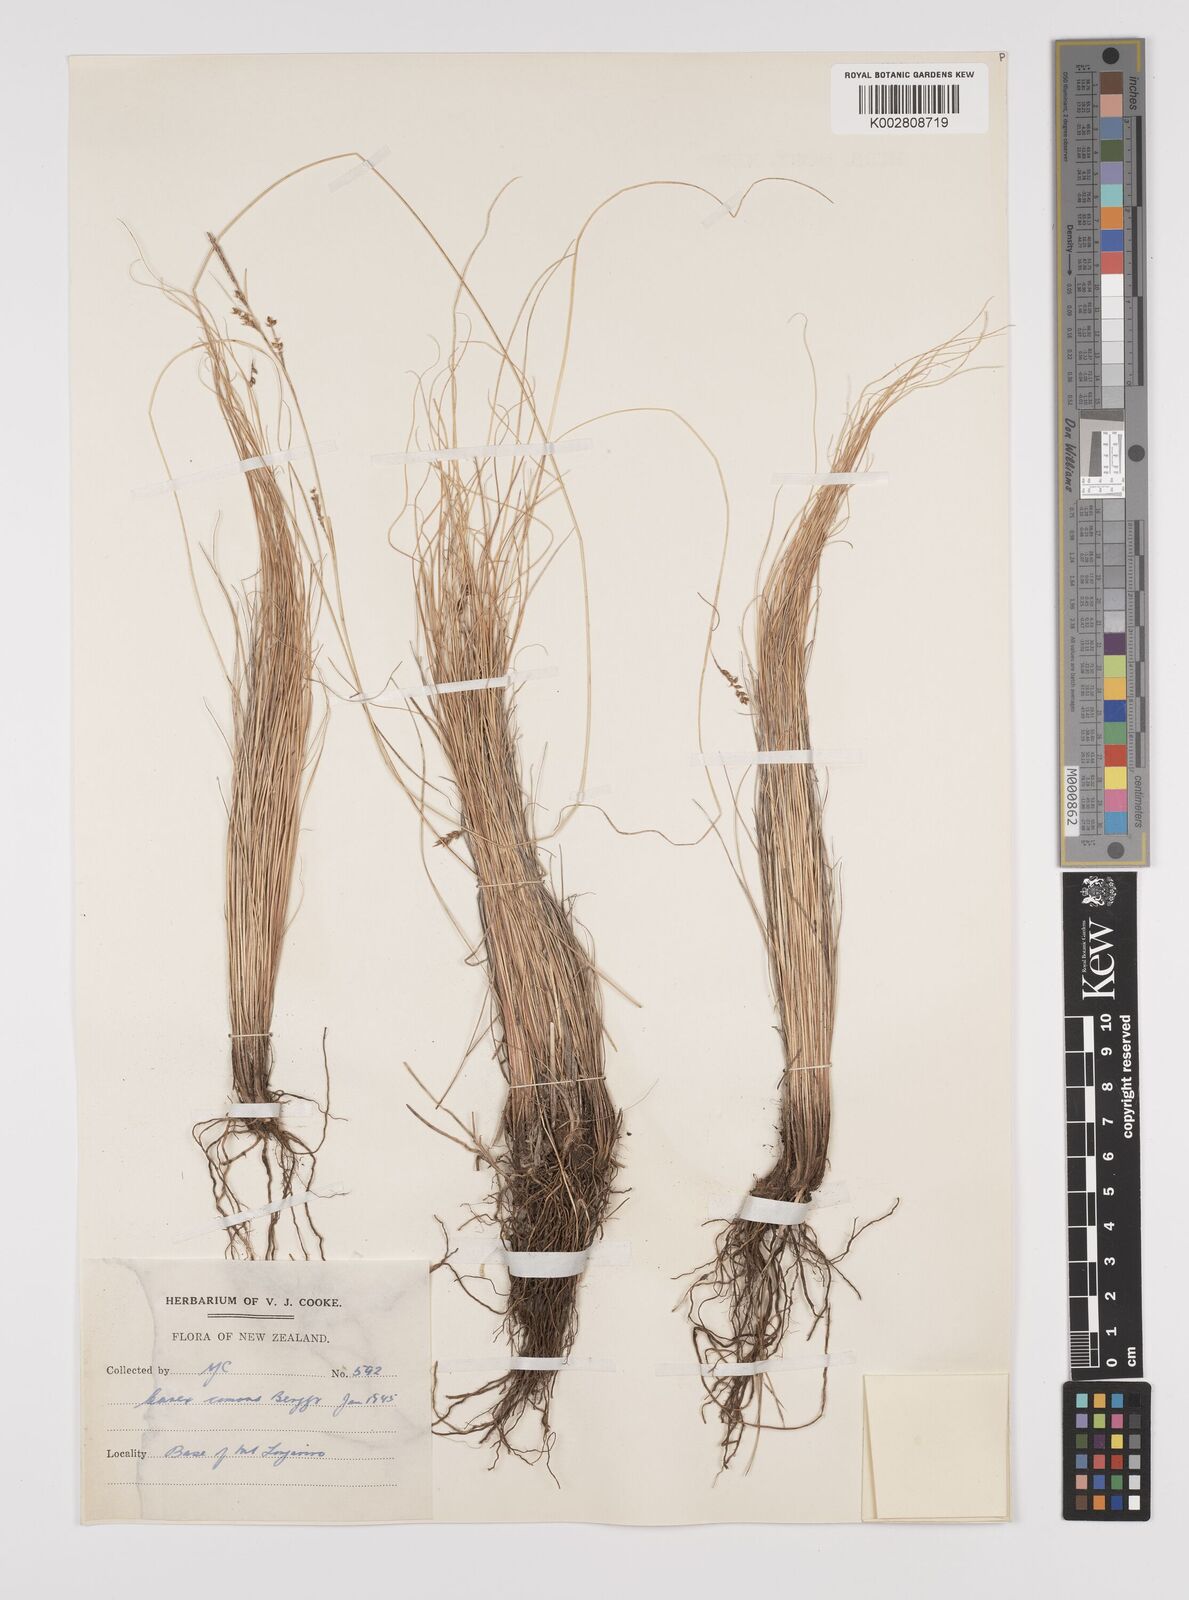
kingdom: Plantae
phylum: Tracheophyta
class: Liliopsida
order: Poales
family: Cyperaceae
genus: Carex
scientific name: Carex comans
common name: Longwood tussock
